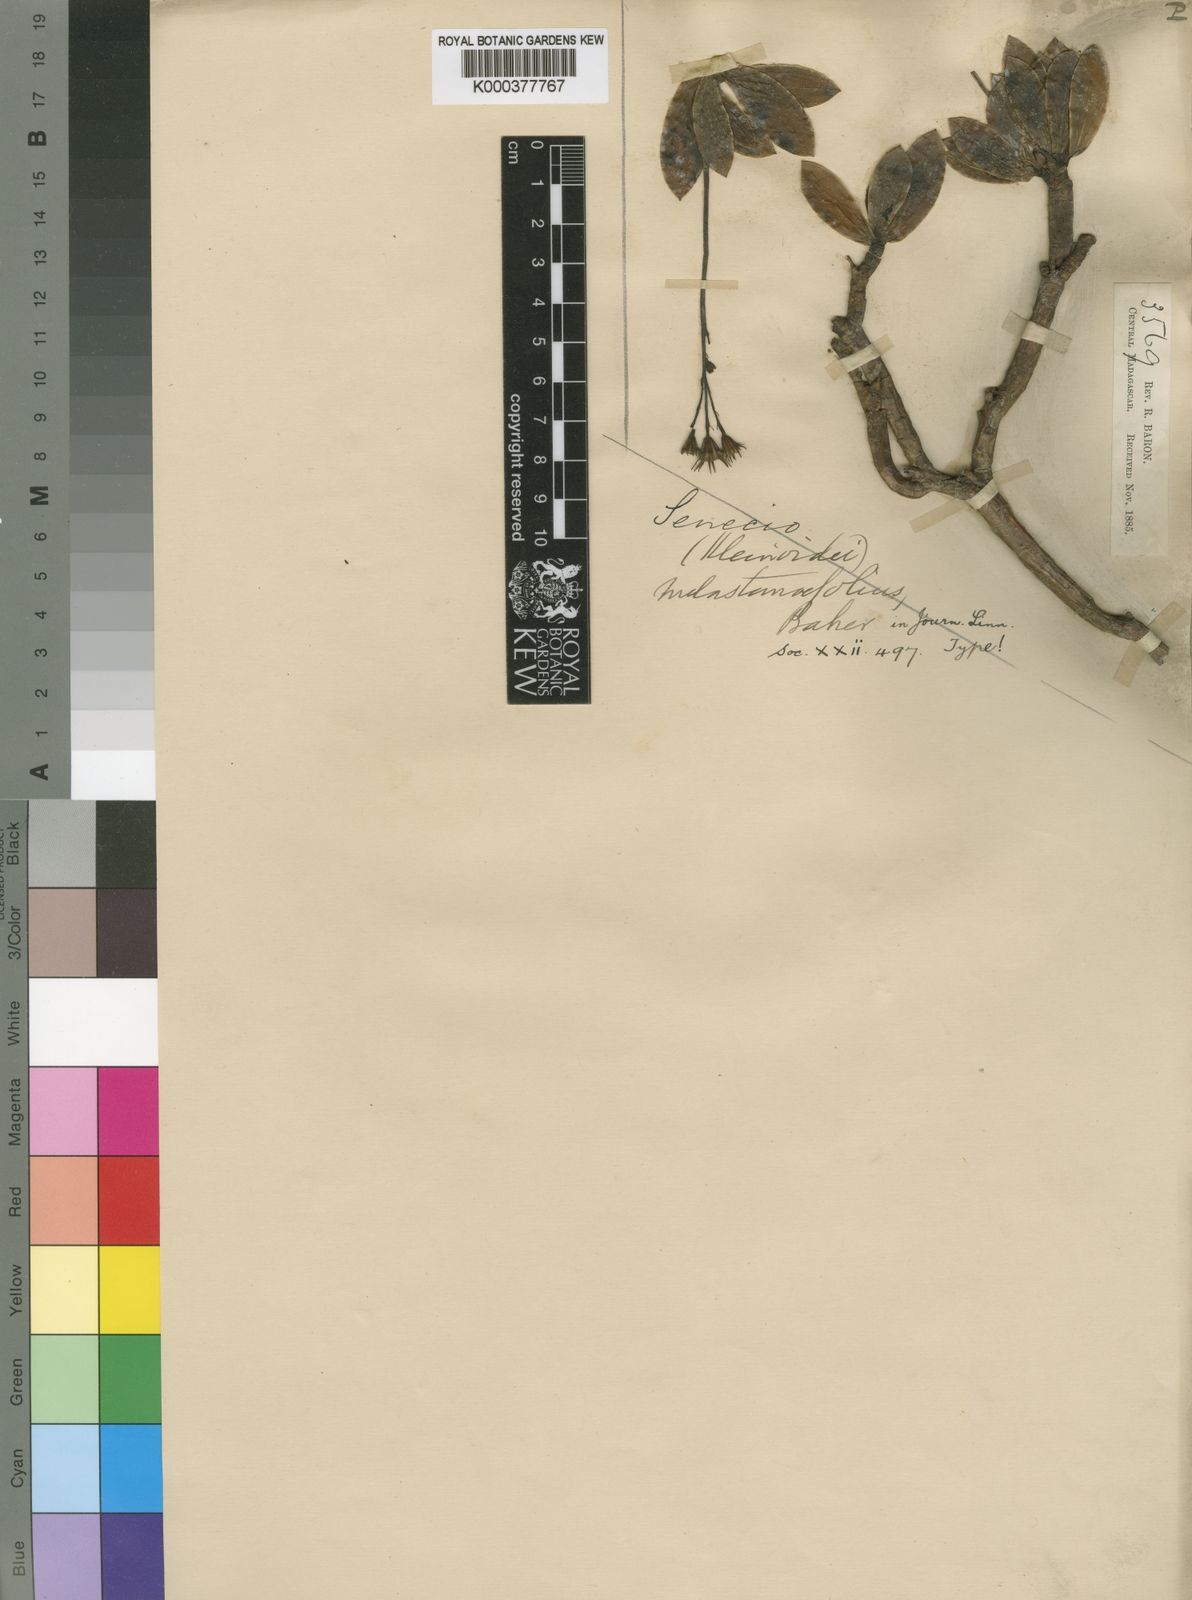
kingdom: Plantae
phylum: Tracheophyta
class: Magnoliopsida
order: Asterales
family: Asteraceae
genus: Senecio
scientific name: Senecio
